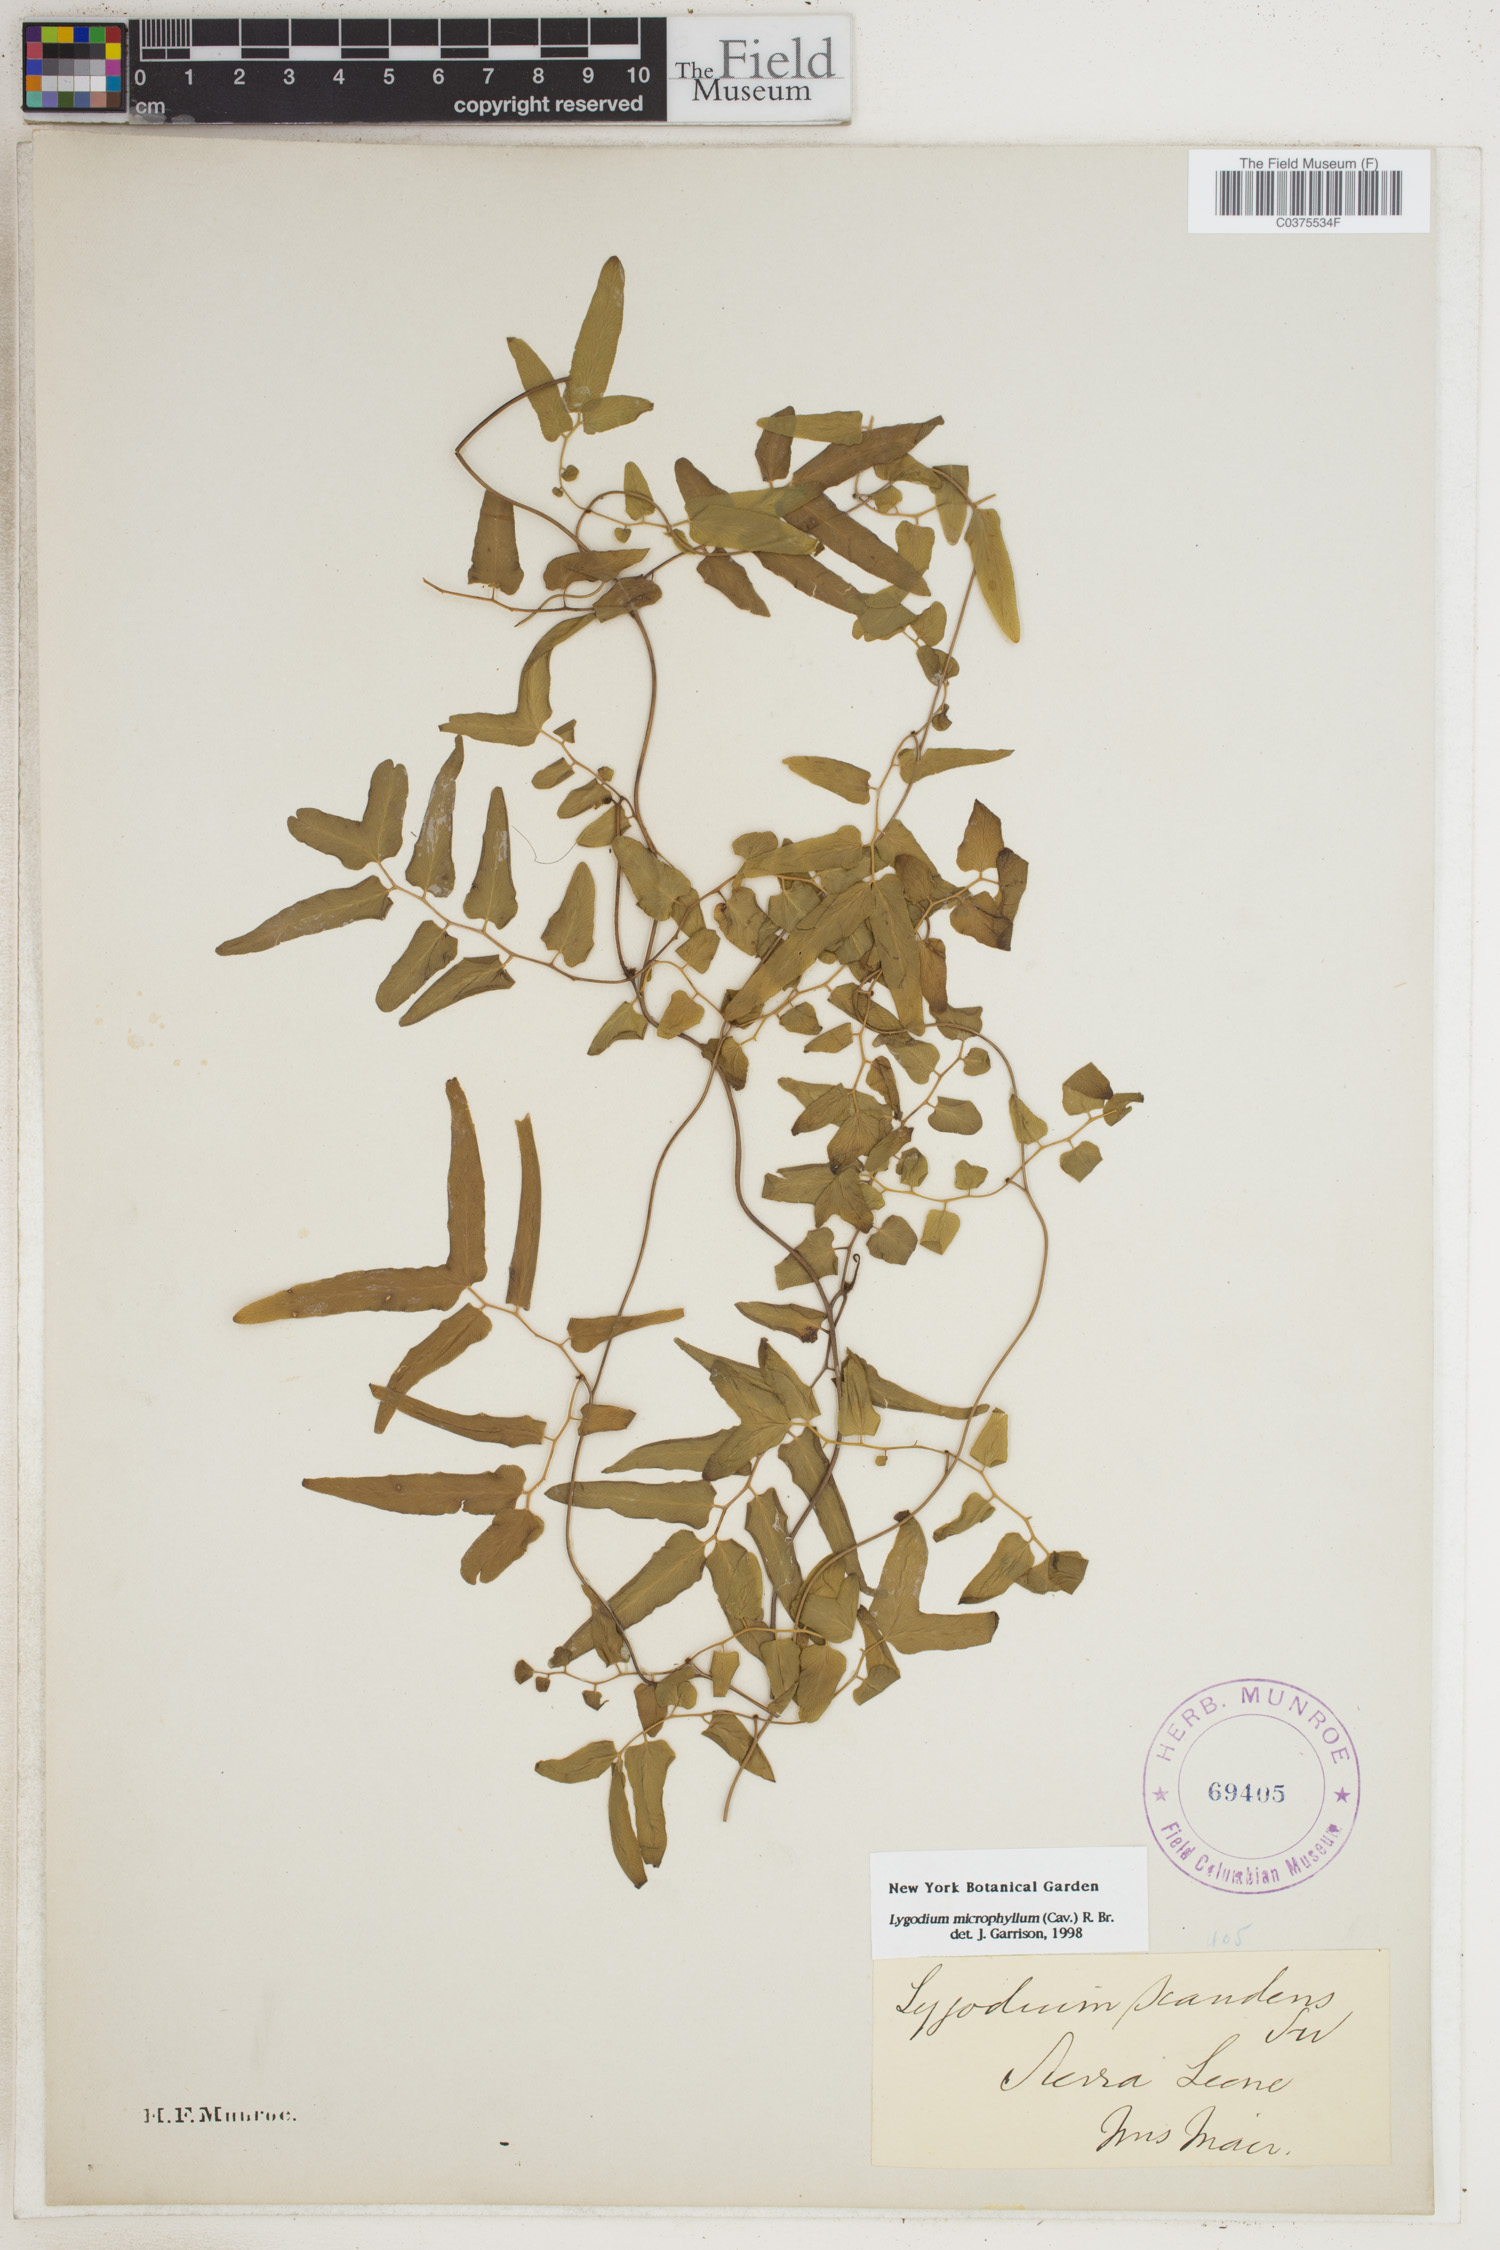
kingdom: Plantae
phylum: Tracheophyta
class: Polypodiopsida
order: Schizaeales
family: Lygodiaceae
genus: Lygodium
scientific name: Lygodium microphyllum
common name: Small-leaf climbing fern
